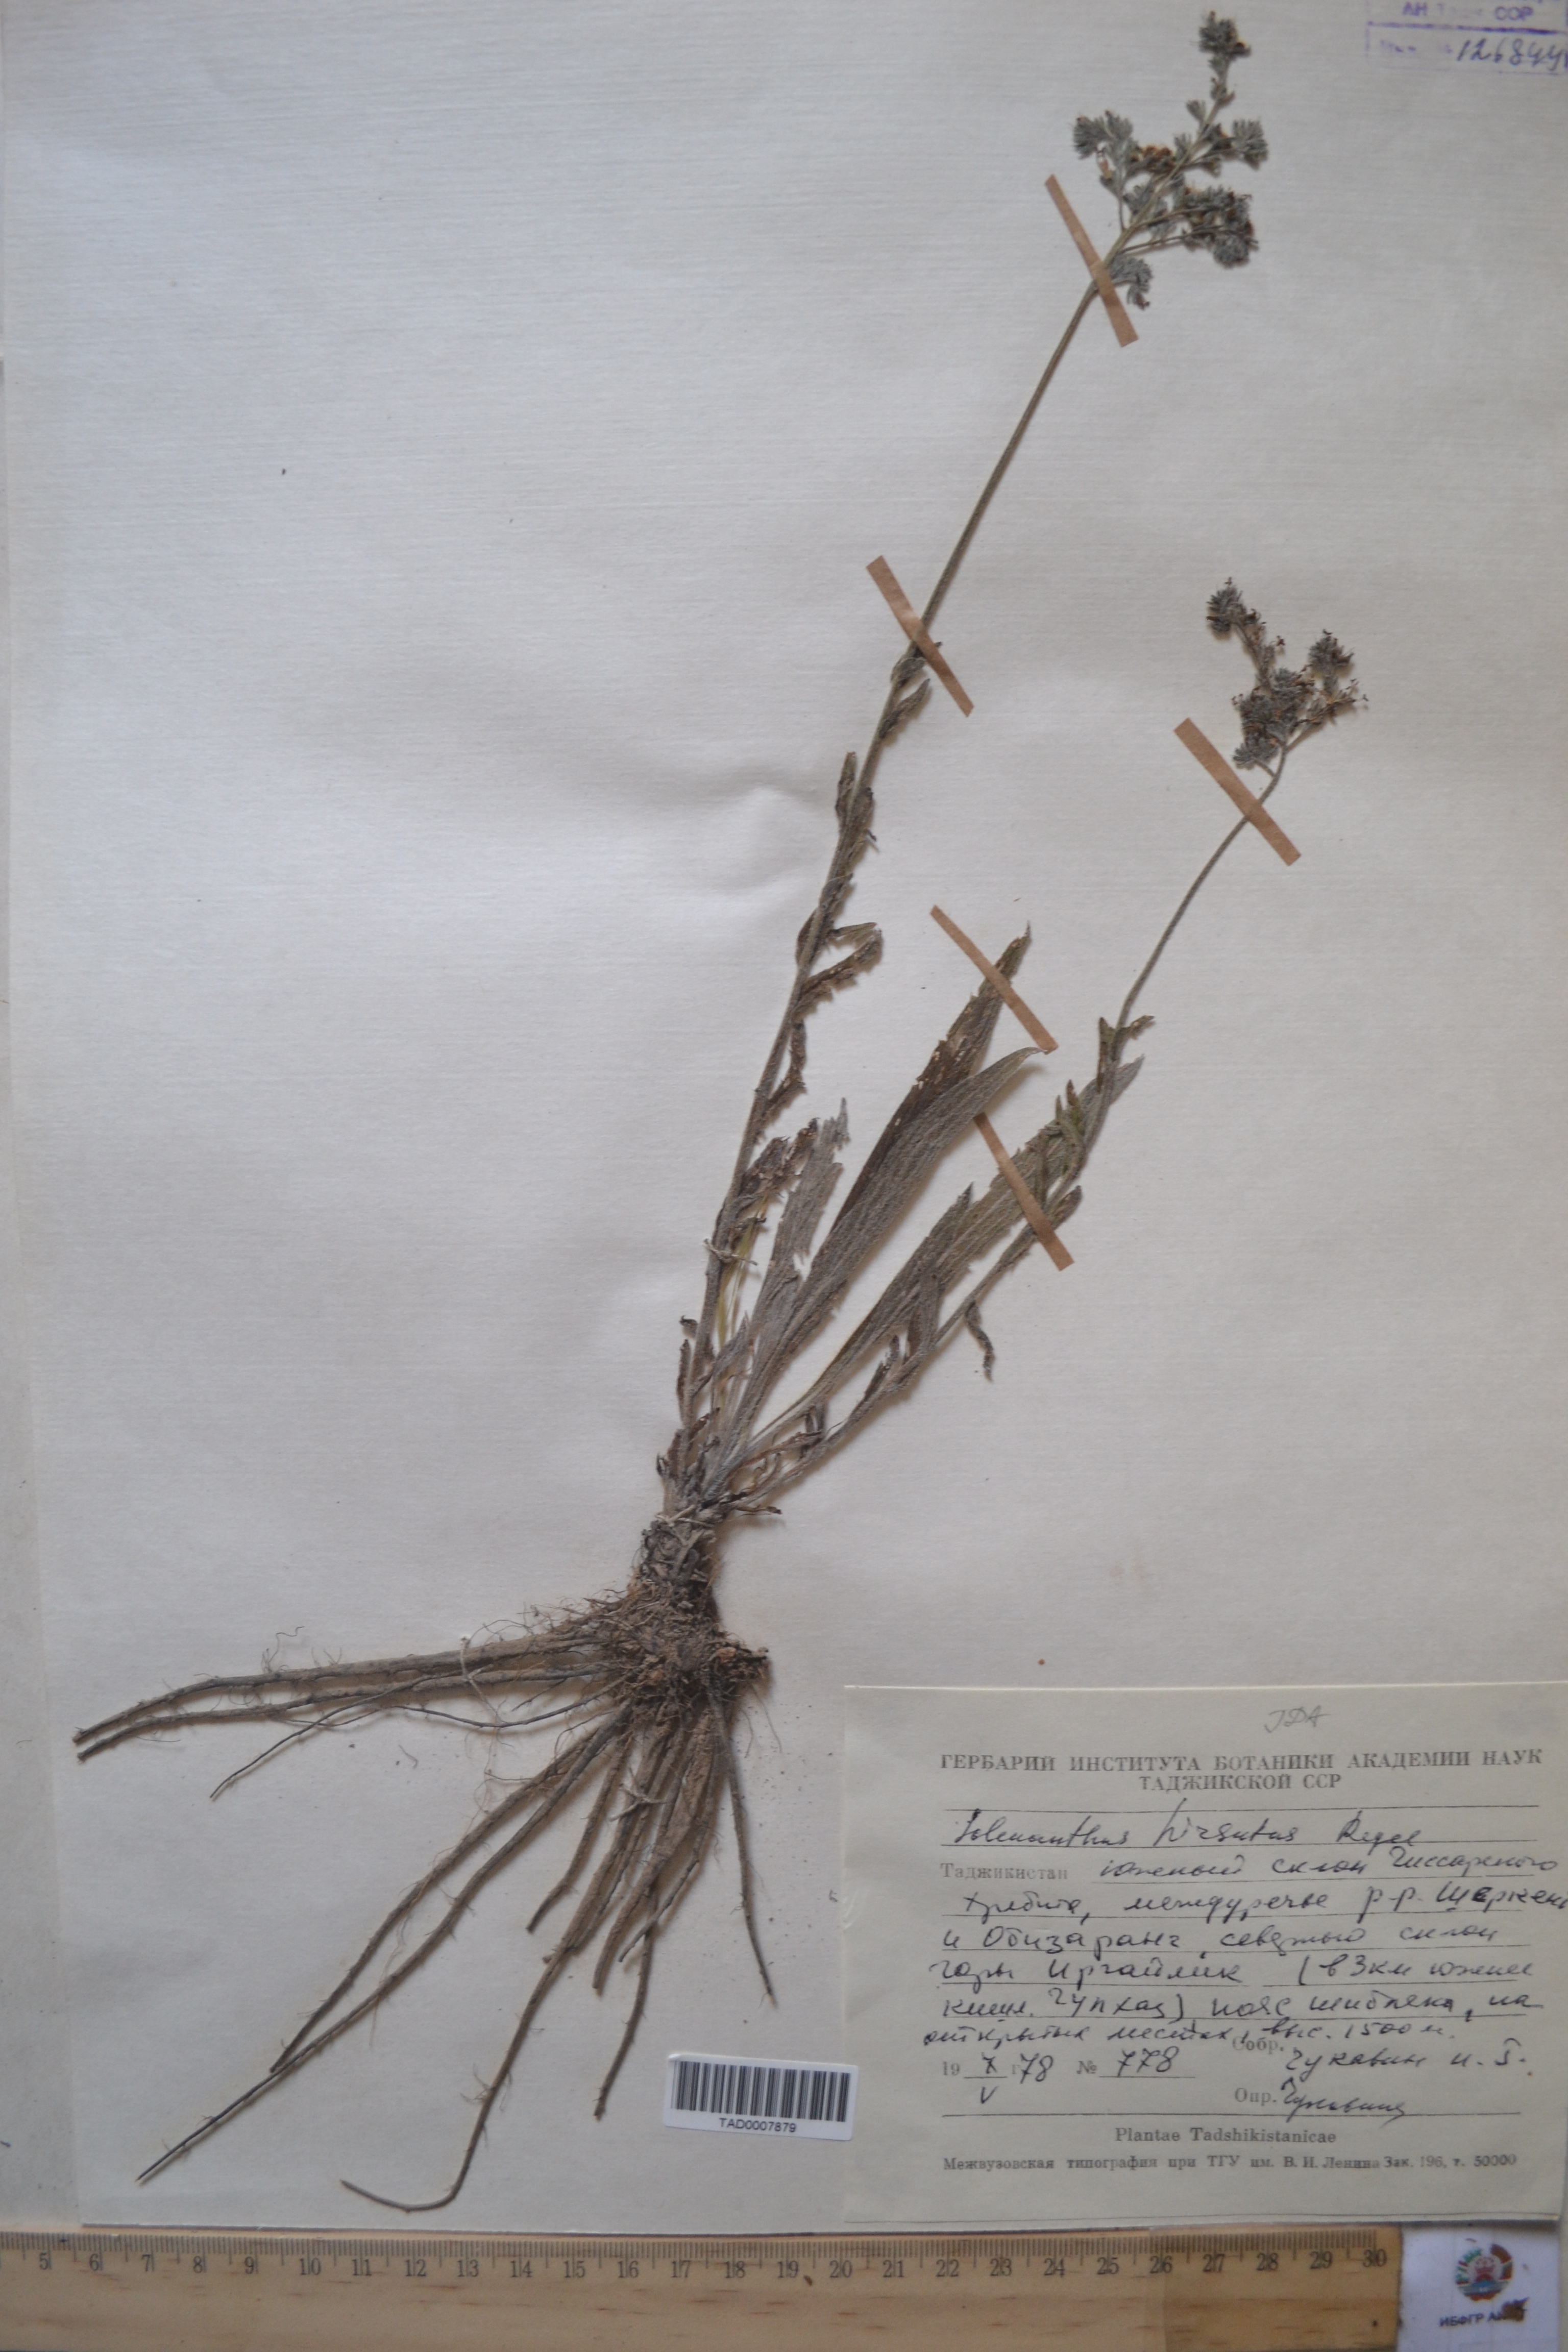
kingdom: Plantae
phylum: Tracheophyta
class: Magnoliopsida
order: Boraginales
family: Boraginaceae
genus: Solenanthus
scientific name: Solenanthus hirsutus
